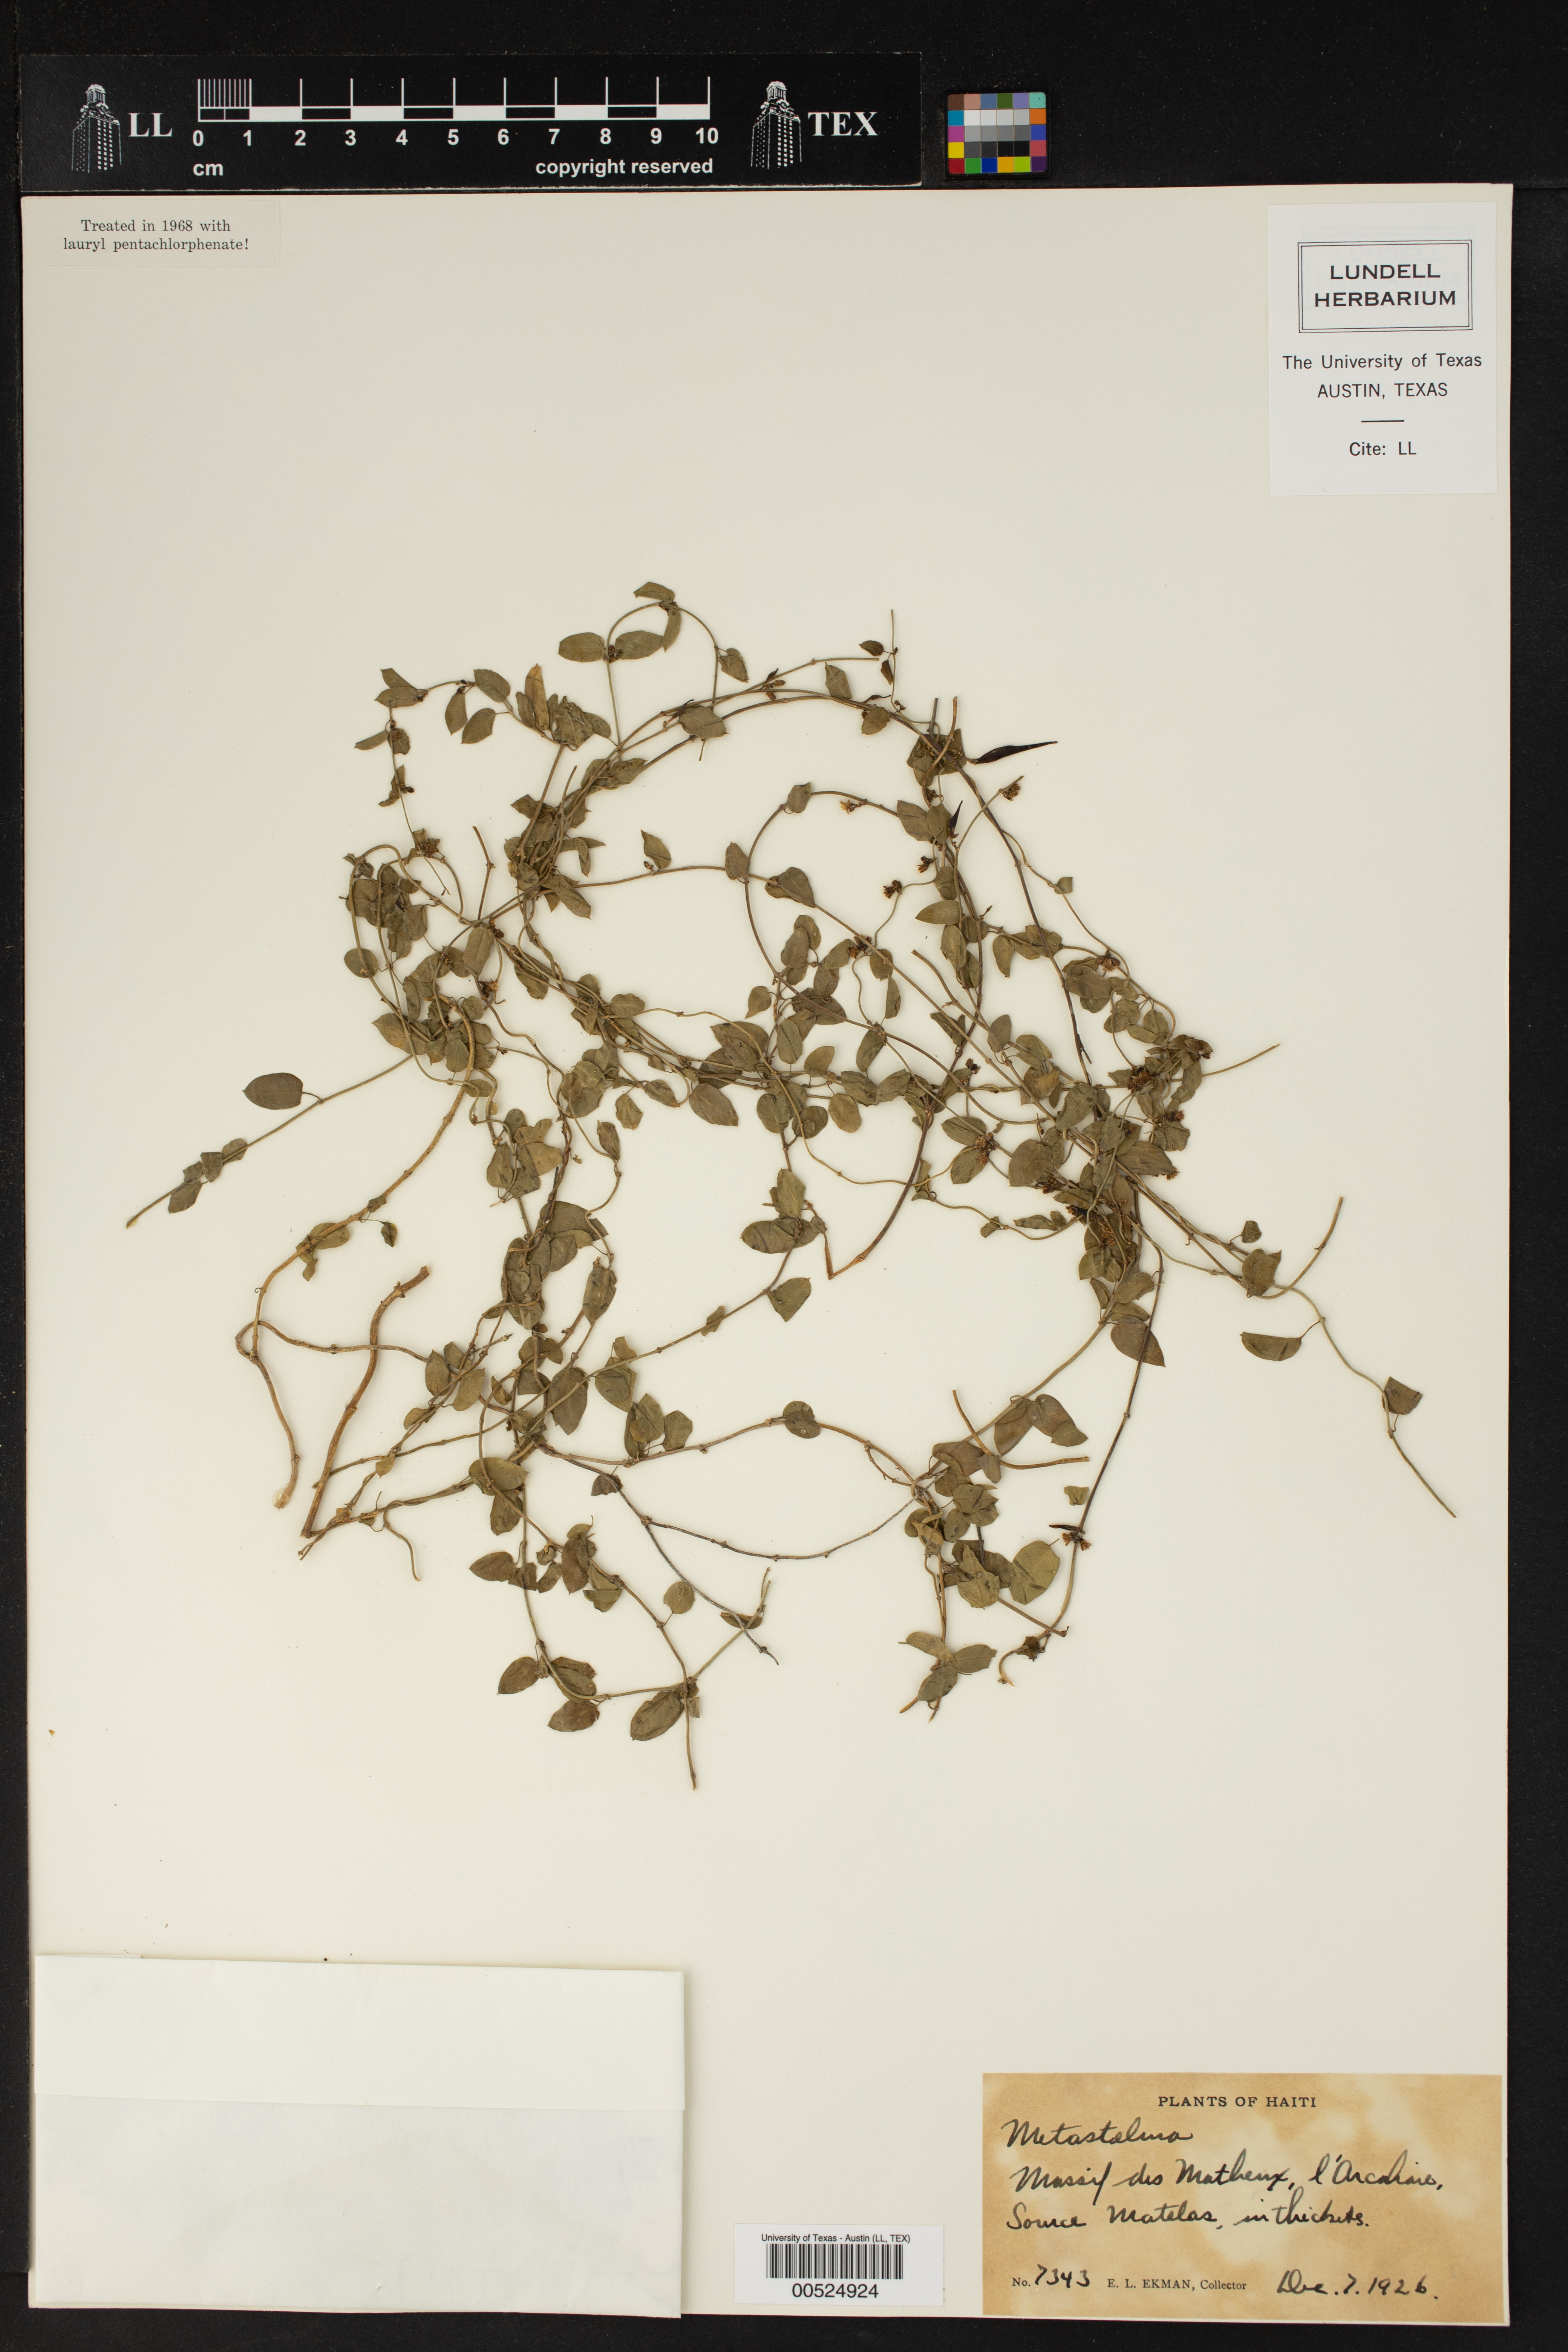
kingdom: Plantae
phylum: Tracheophyta
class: Magnoliopsida
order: Gentianales
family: Apocynaceae
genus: Metastelma
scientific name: Metastelma
